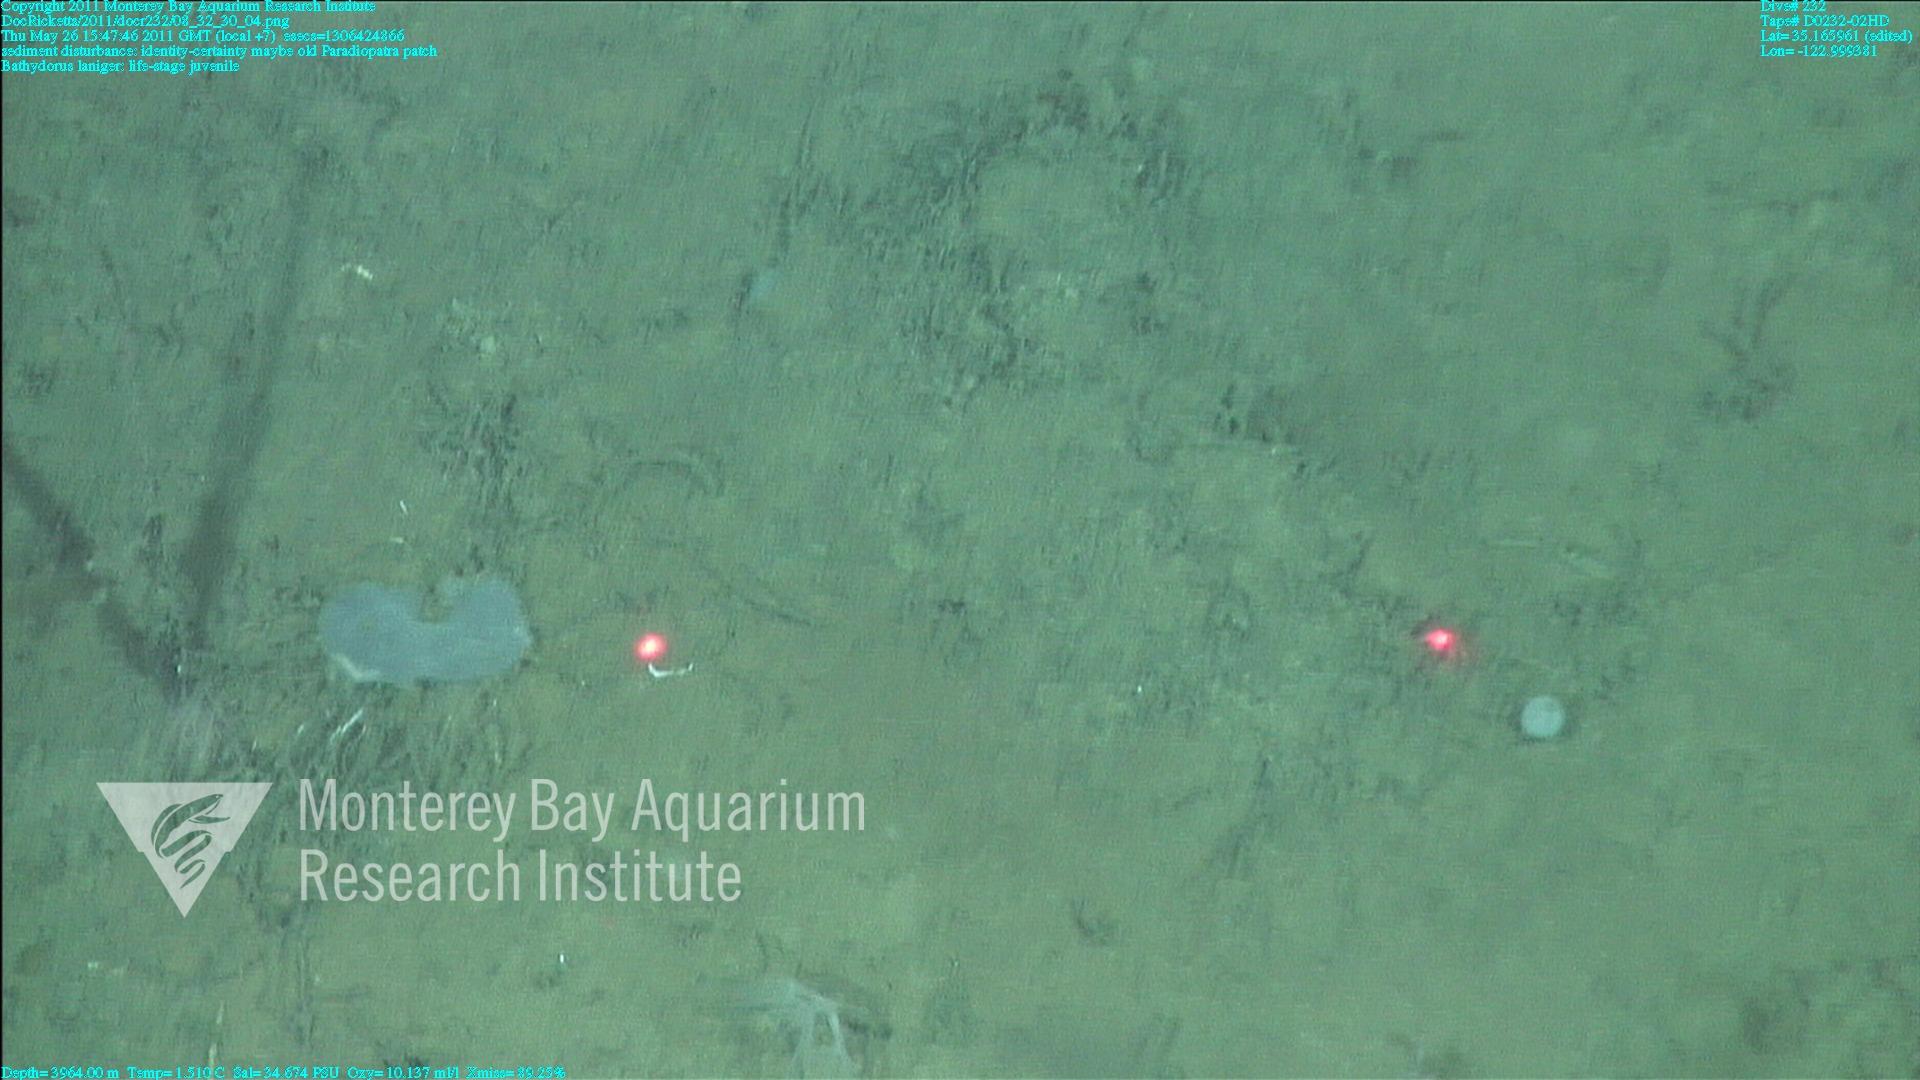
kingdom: Animalia
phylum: Porifera
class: Hexactinellida
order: Lyssacinosida
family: Rossellidae
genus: Bathydorus
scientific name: Bathydorus laniger
